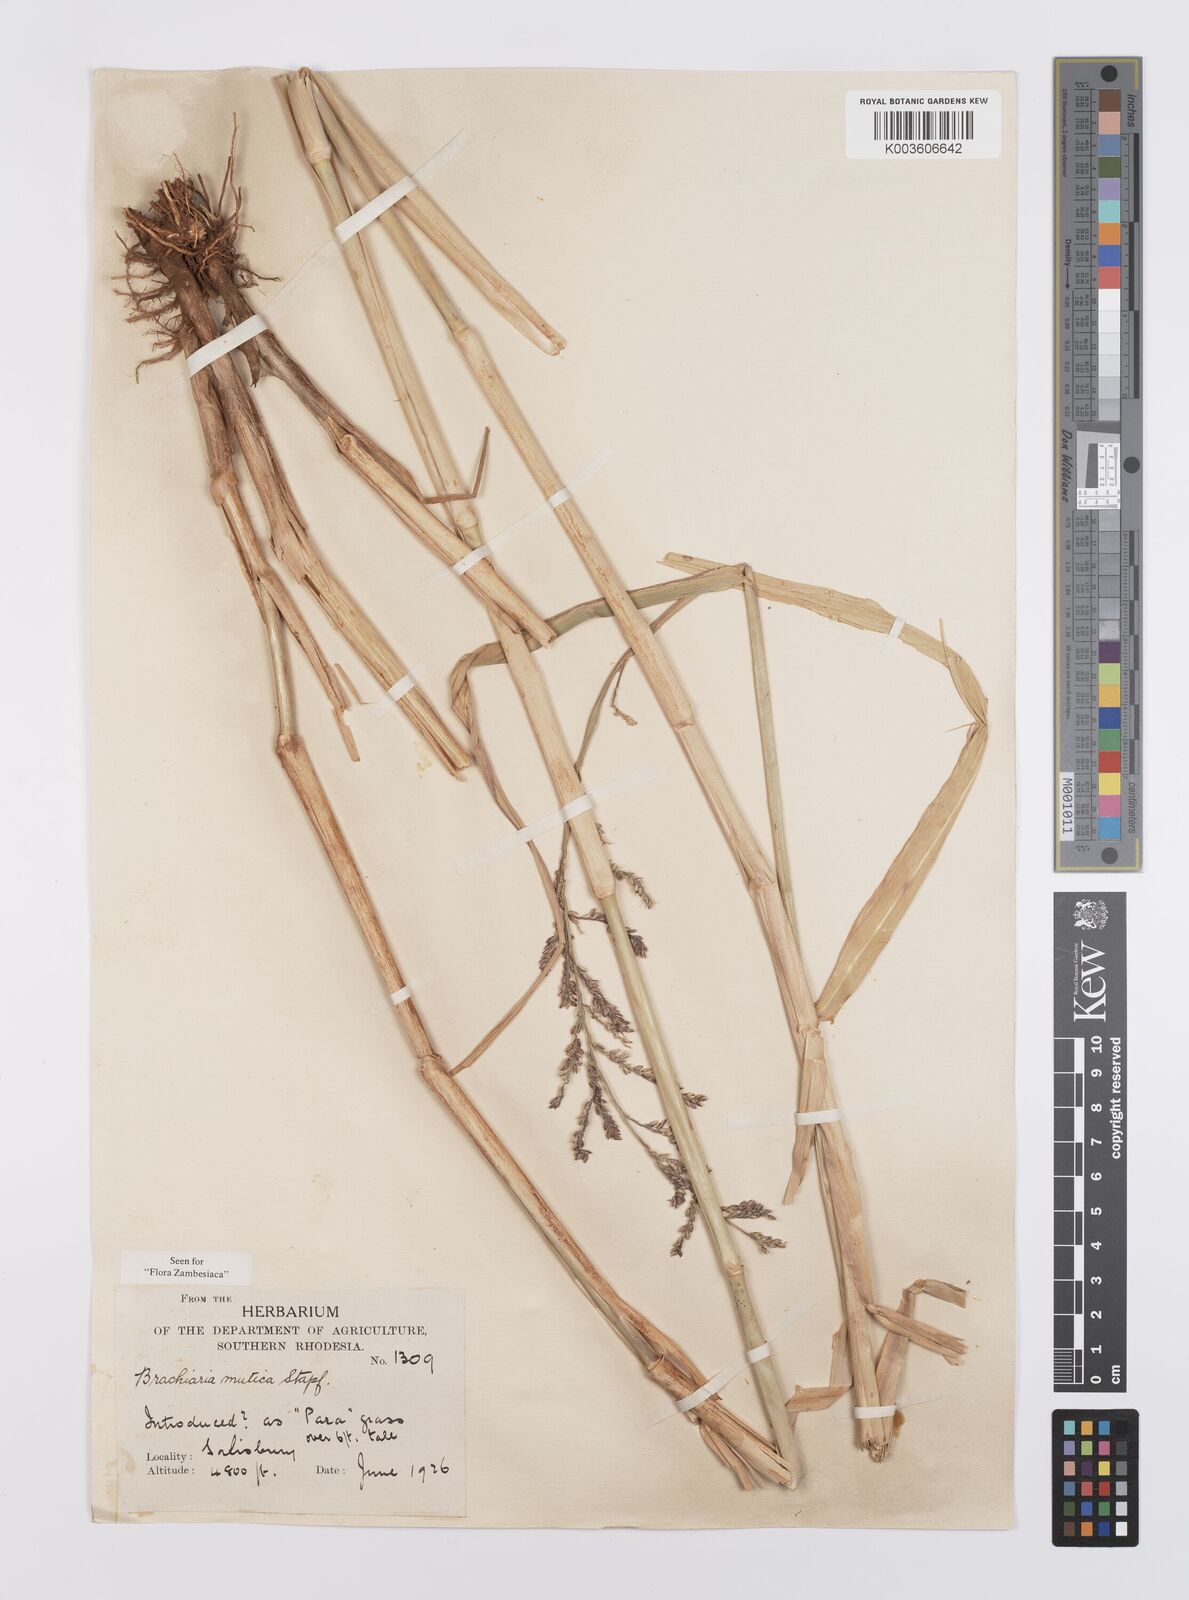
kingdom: Plantae
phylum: Tracheophyta
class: Liliopsida
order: Poales
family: Poaceae
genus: Urochloa
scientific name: Urochloa mutica
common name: Para grass
